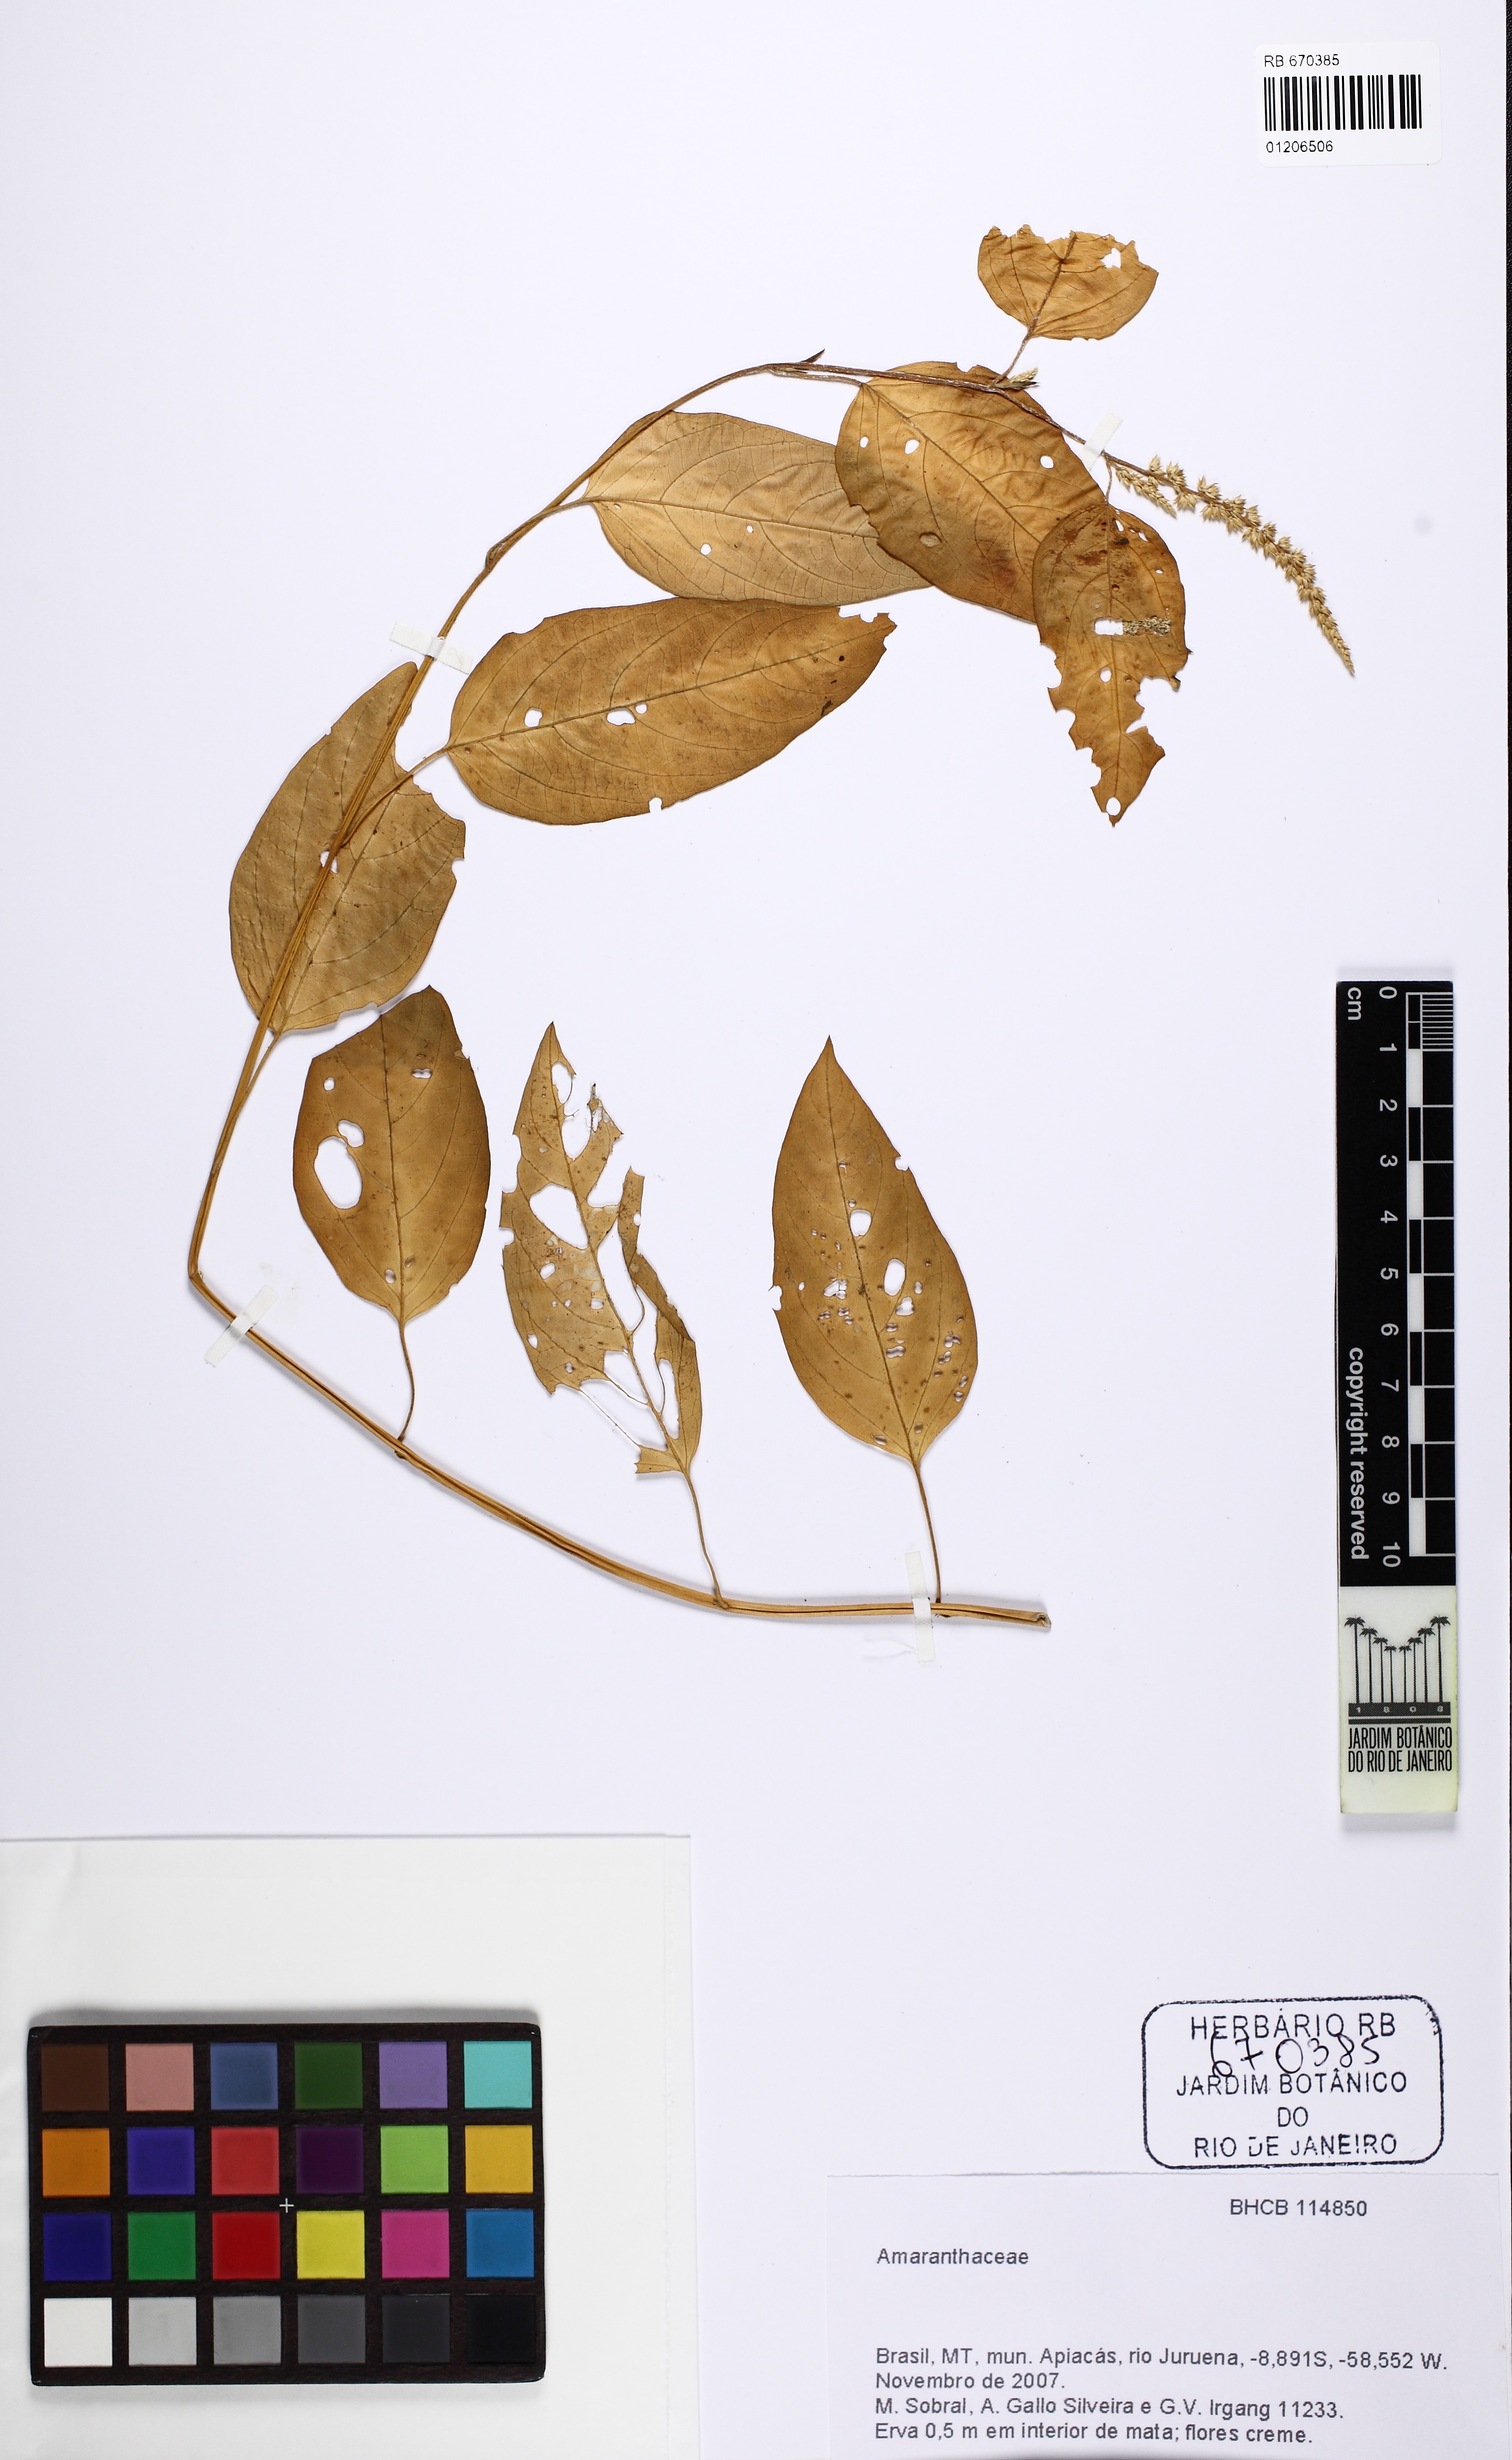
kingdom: Plantae
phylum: Tracheophyta
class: Magnoliopsida
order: Caryophyllales
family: Amaranthaceae
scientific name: Amaranthaceae
